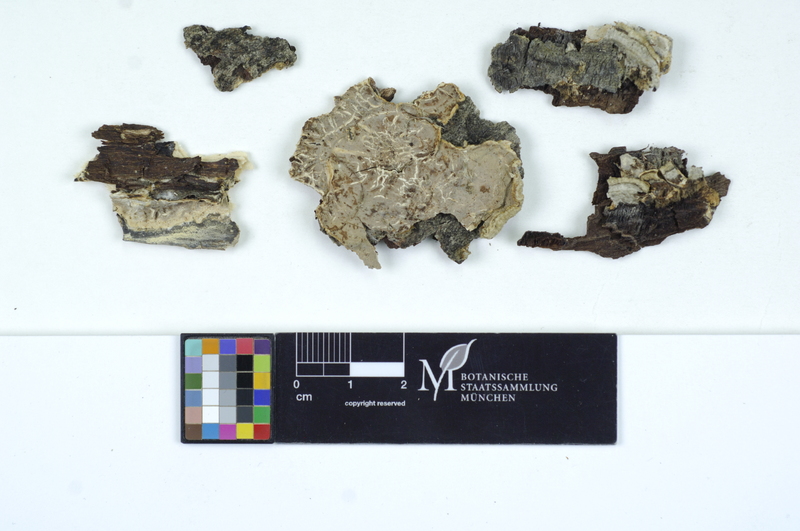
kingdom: Fungi
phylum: Basidiomycota
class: Agaricomycetes
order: Auriculariales
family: Auriculariaceae
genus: Exidiopsis
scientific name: Exidiopsis leucophaea
